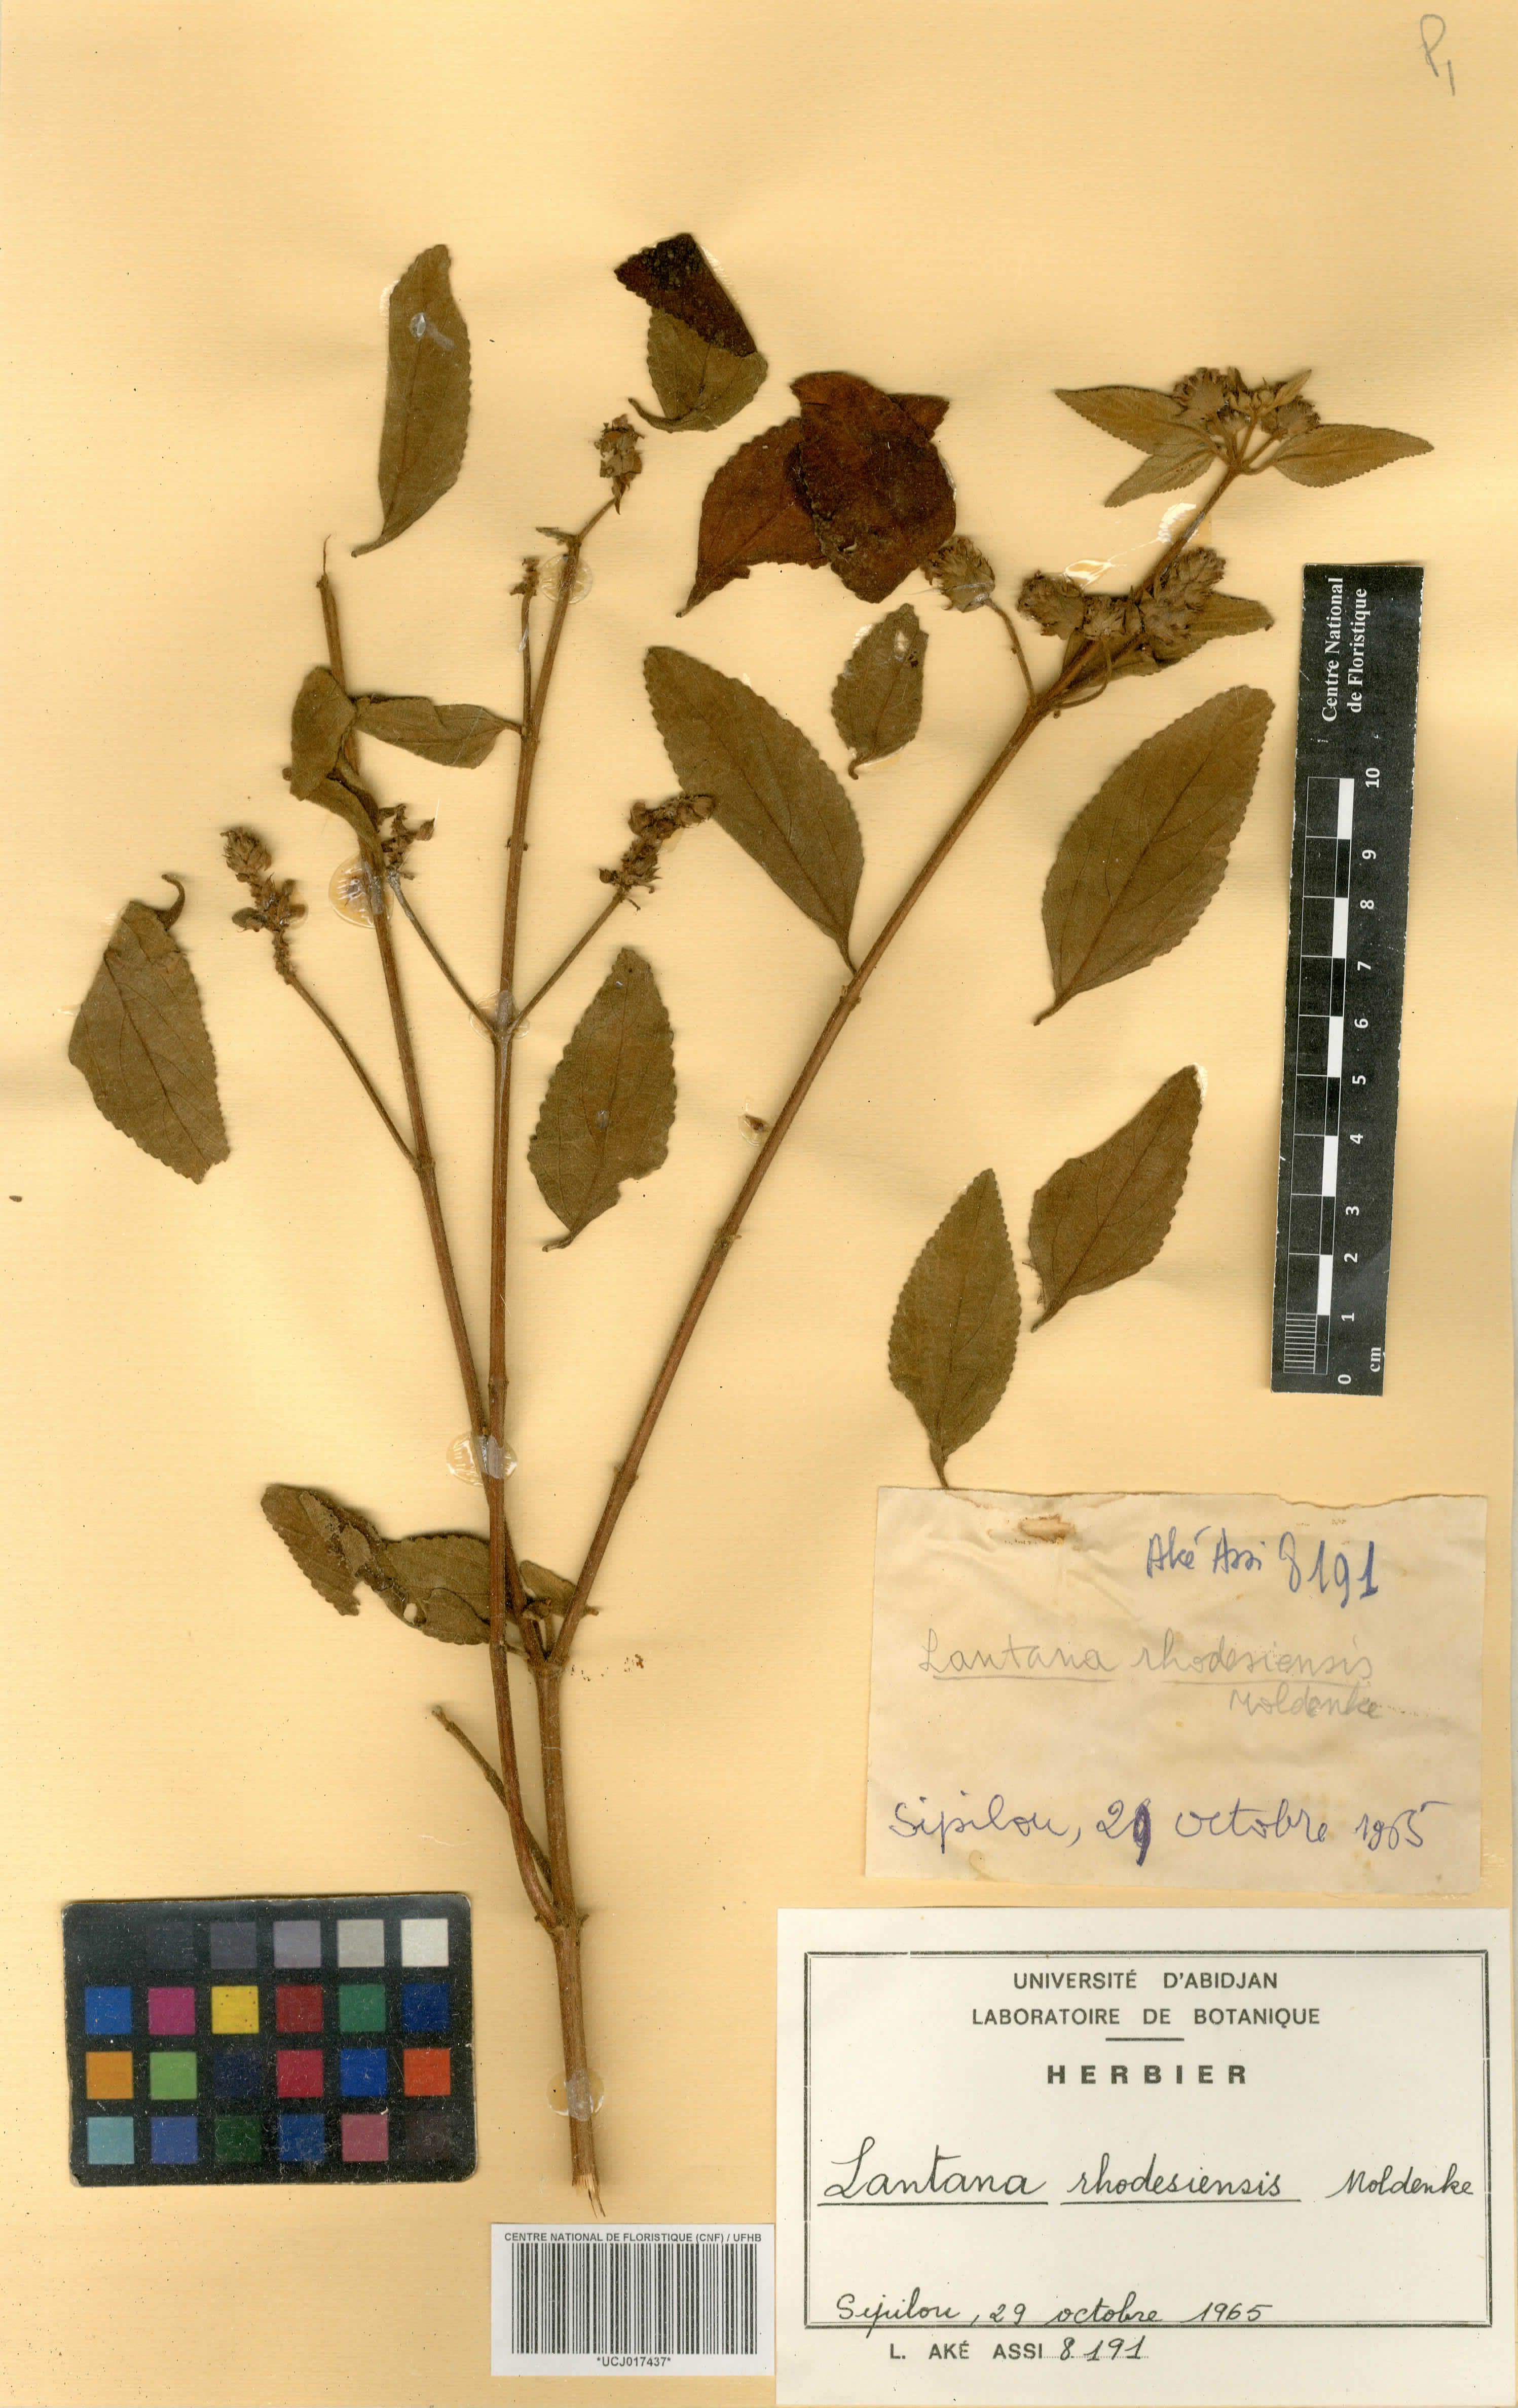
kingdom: Plantae
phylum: Tracheophyta
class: Magnoliopsida
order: Lamiales
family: Verbenaceae
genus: Lantana
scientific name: Lantana ukambensis
